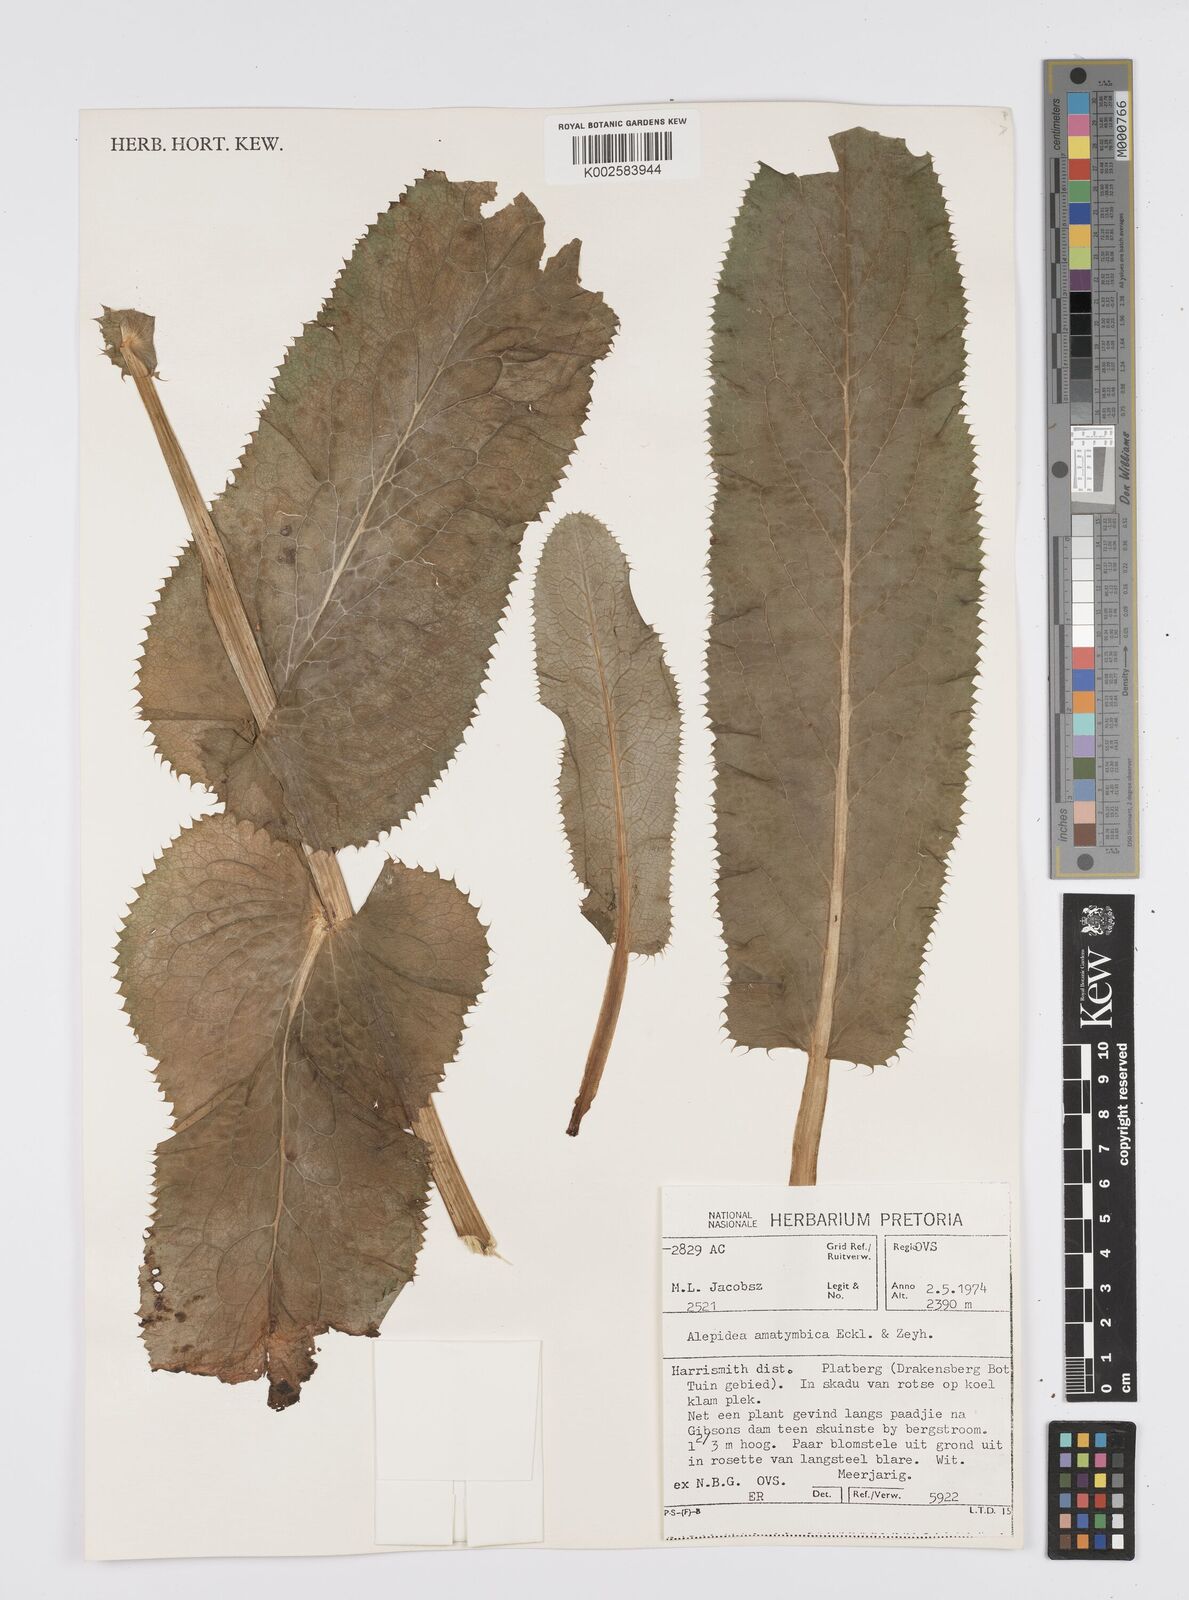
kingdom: Plantae
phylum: Tracheophyta
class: Magnoliopsida
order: Apiales
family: Apiaceae
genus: Alepidea
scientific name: Alepidea amatymbica
